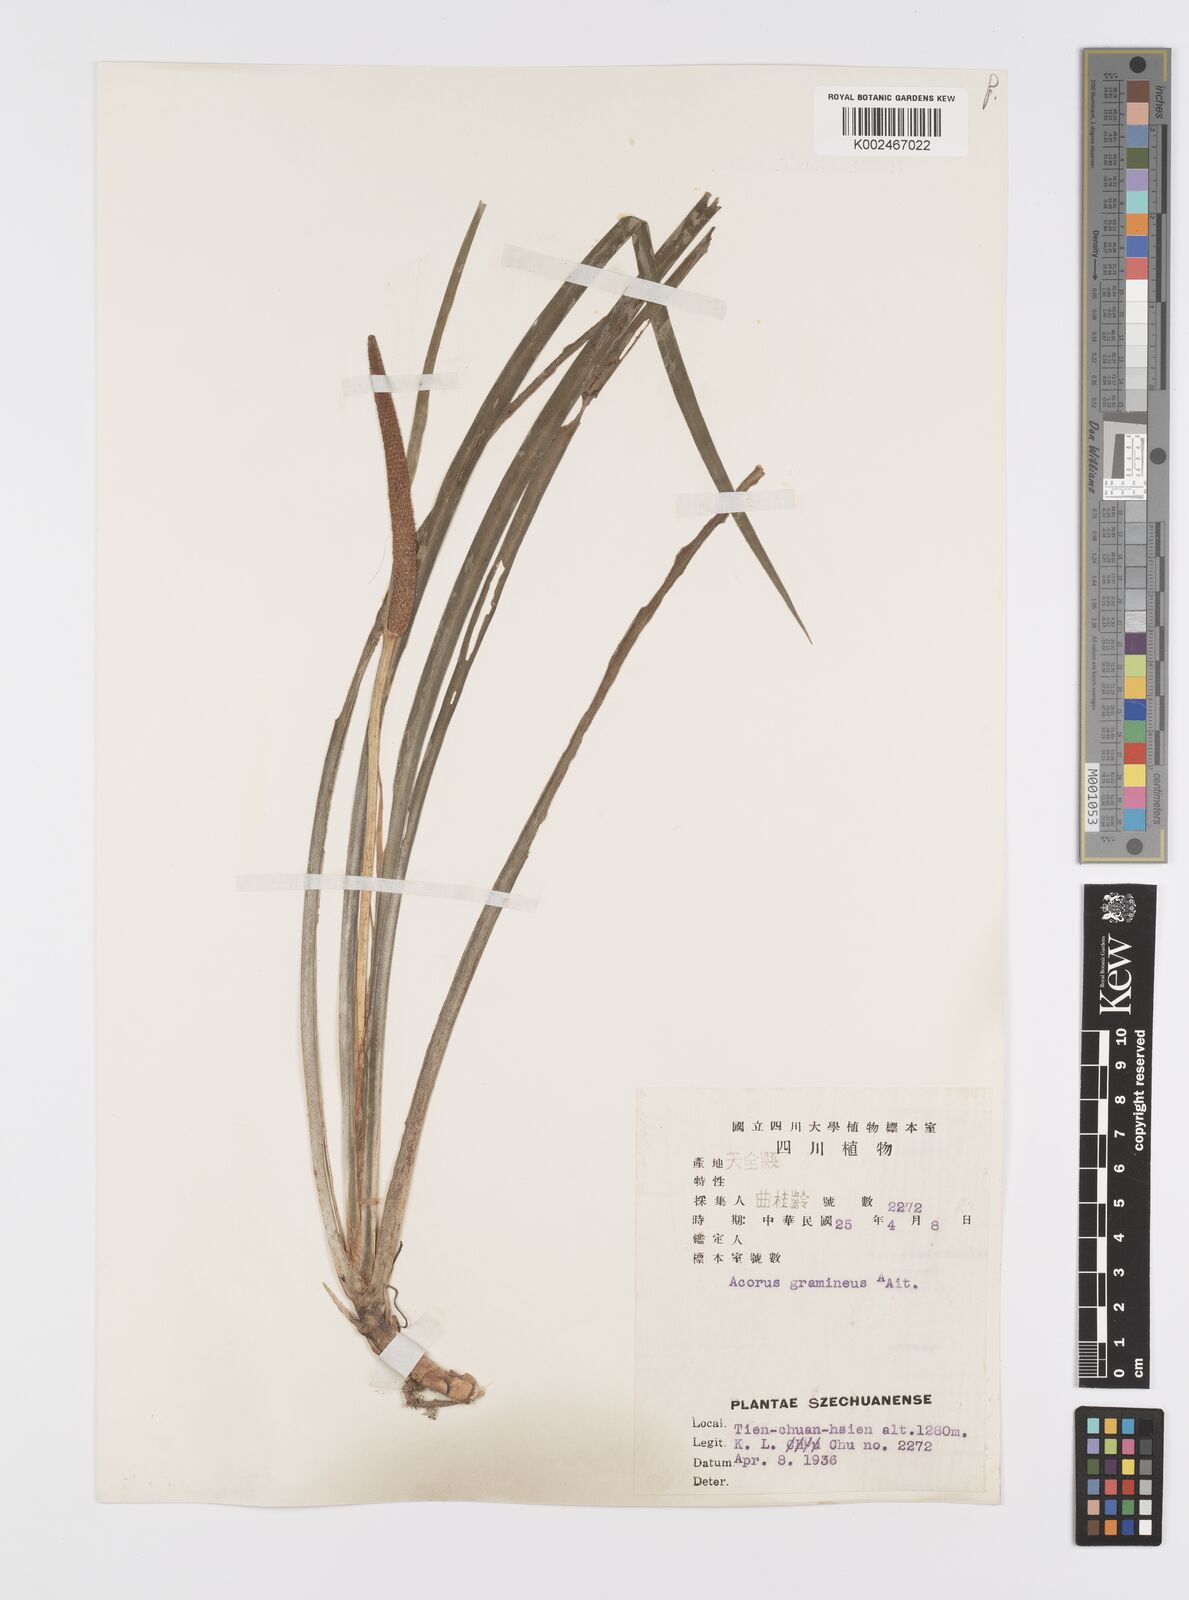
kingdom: Plantae
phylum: Tracheophyta
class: Liliopsida
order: Acorales
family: Acoraceae
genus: Acorus
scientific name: Acorus gramineus
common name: Slender sweet-flag
